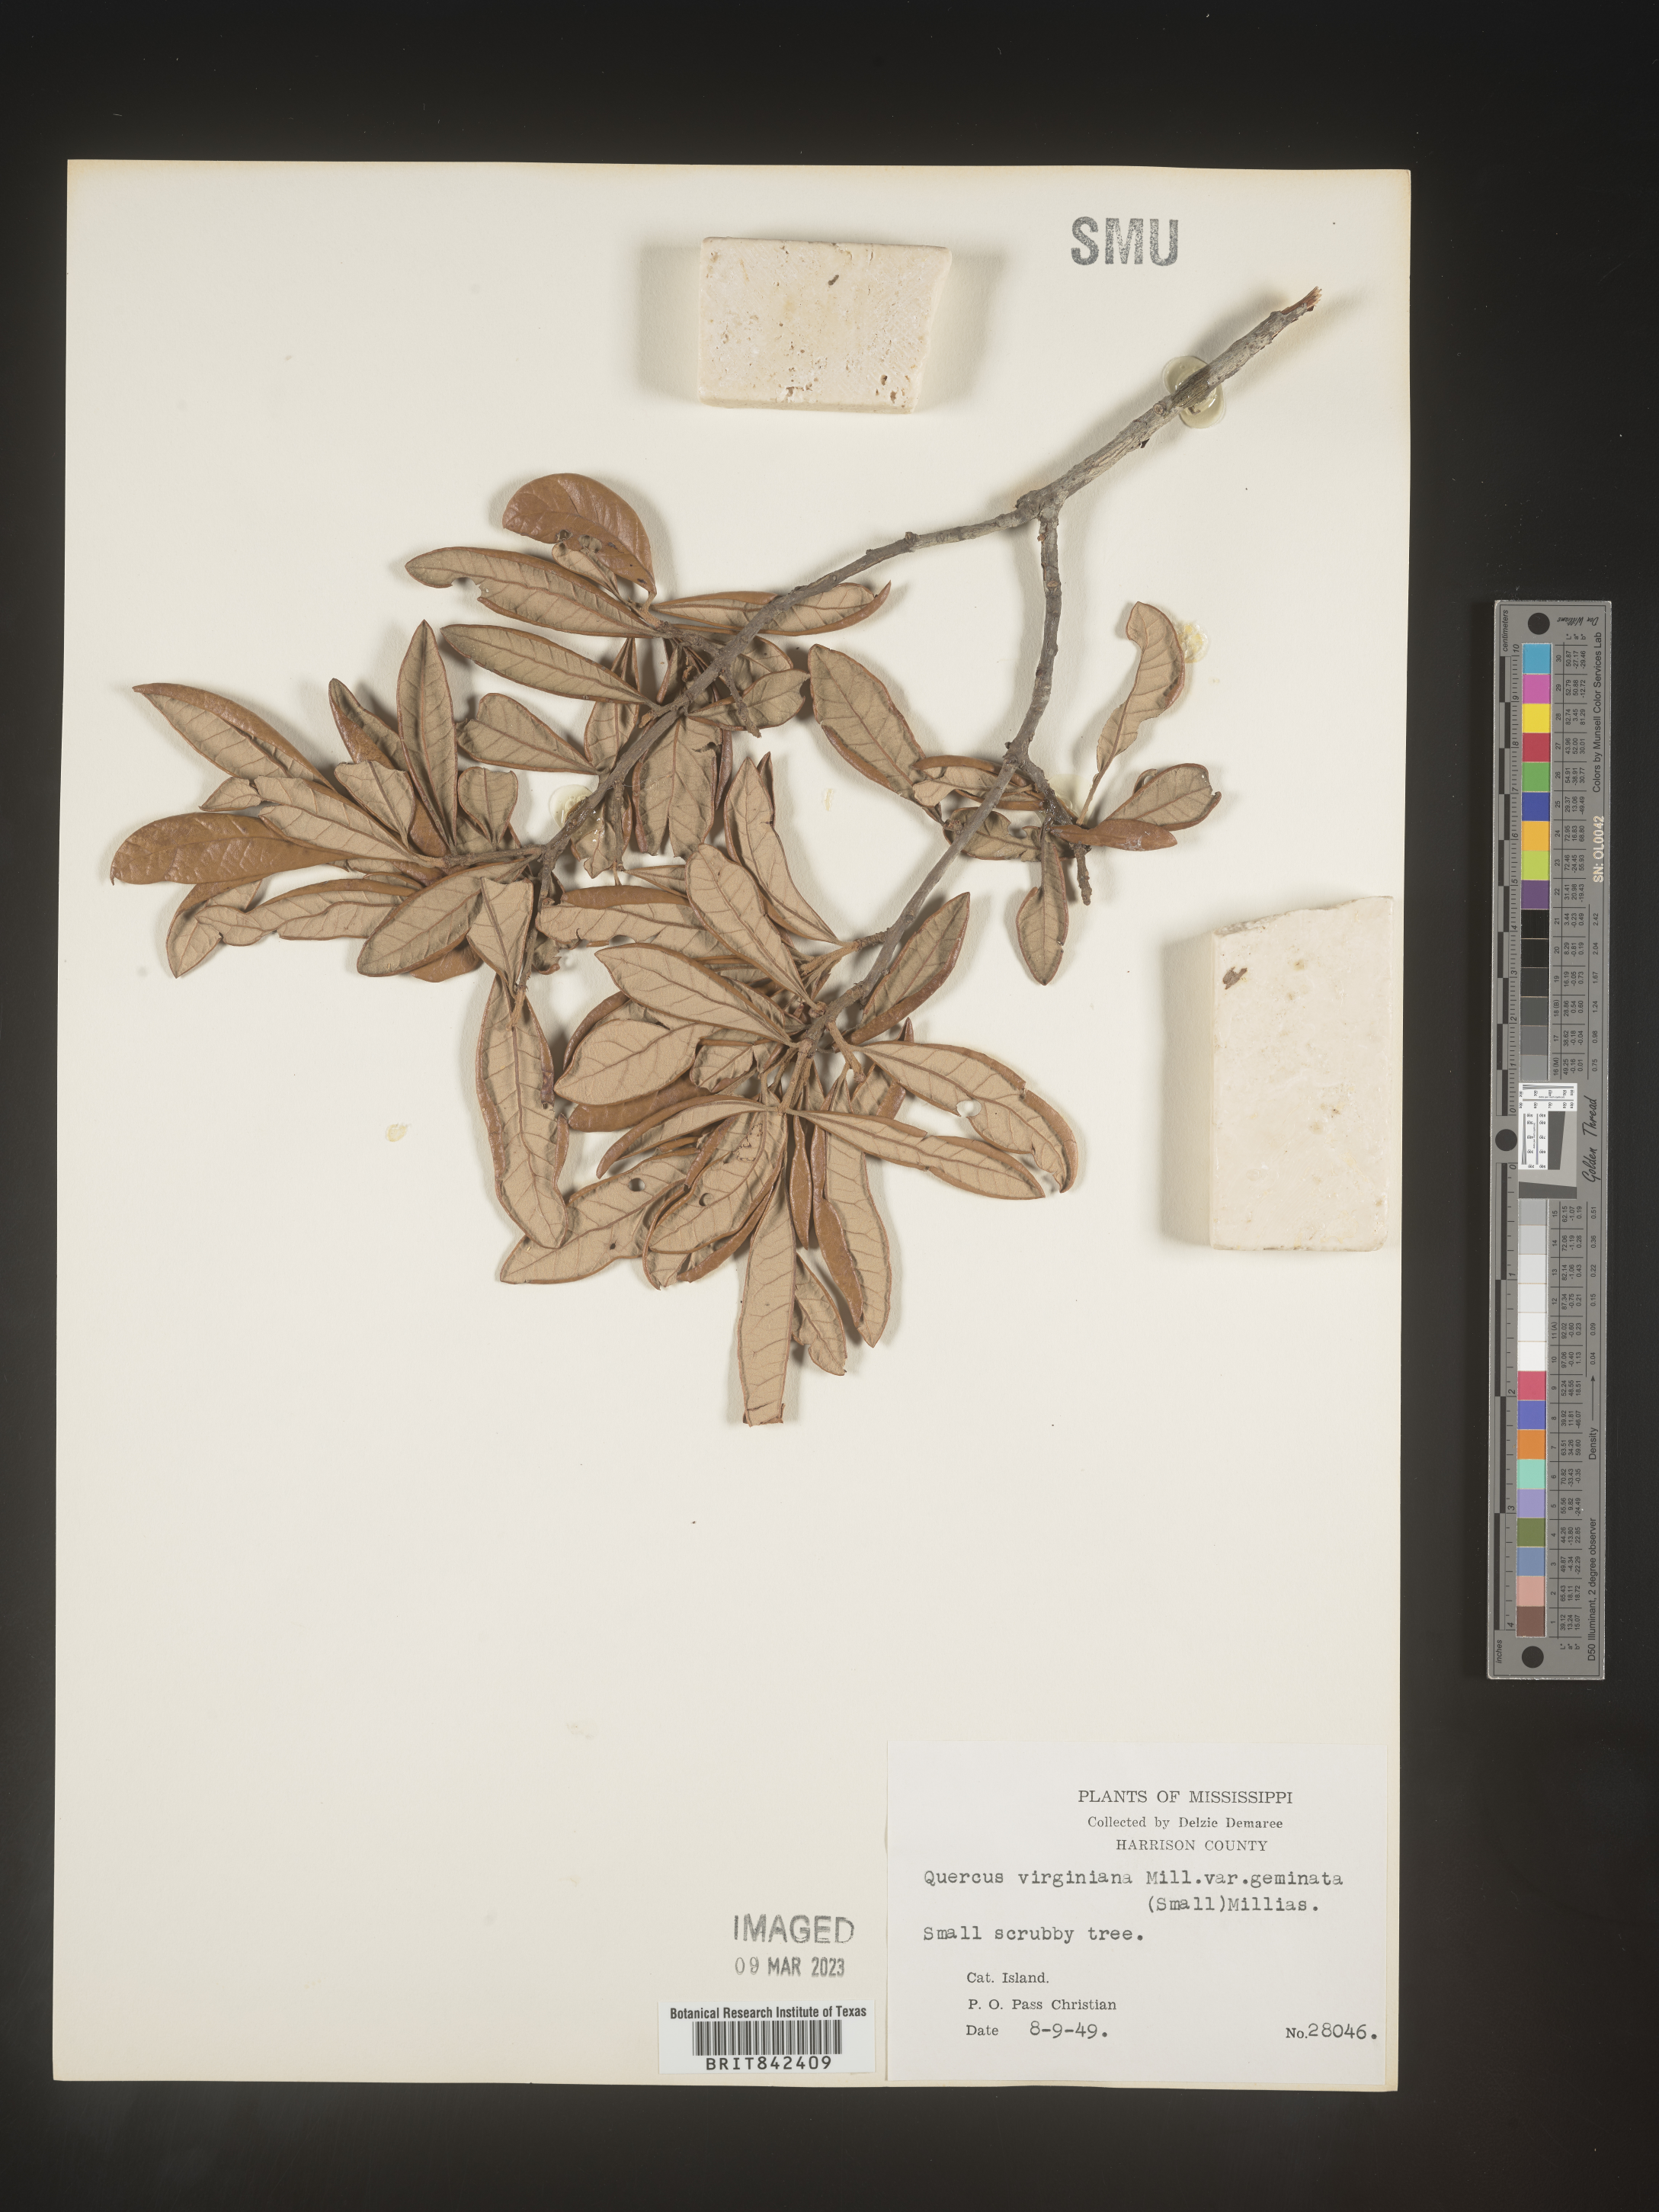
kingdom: Plantae
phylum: Tracheophyta
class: Magnoliopsida
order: Fagales
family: Fagaceae
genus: Quercus
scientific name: Quercus virginiana
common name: Southern live oak
